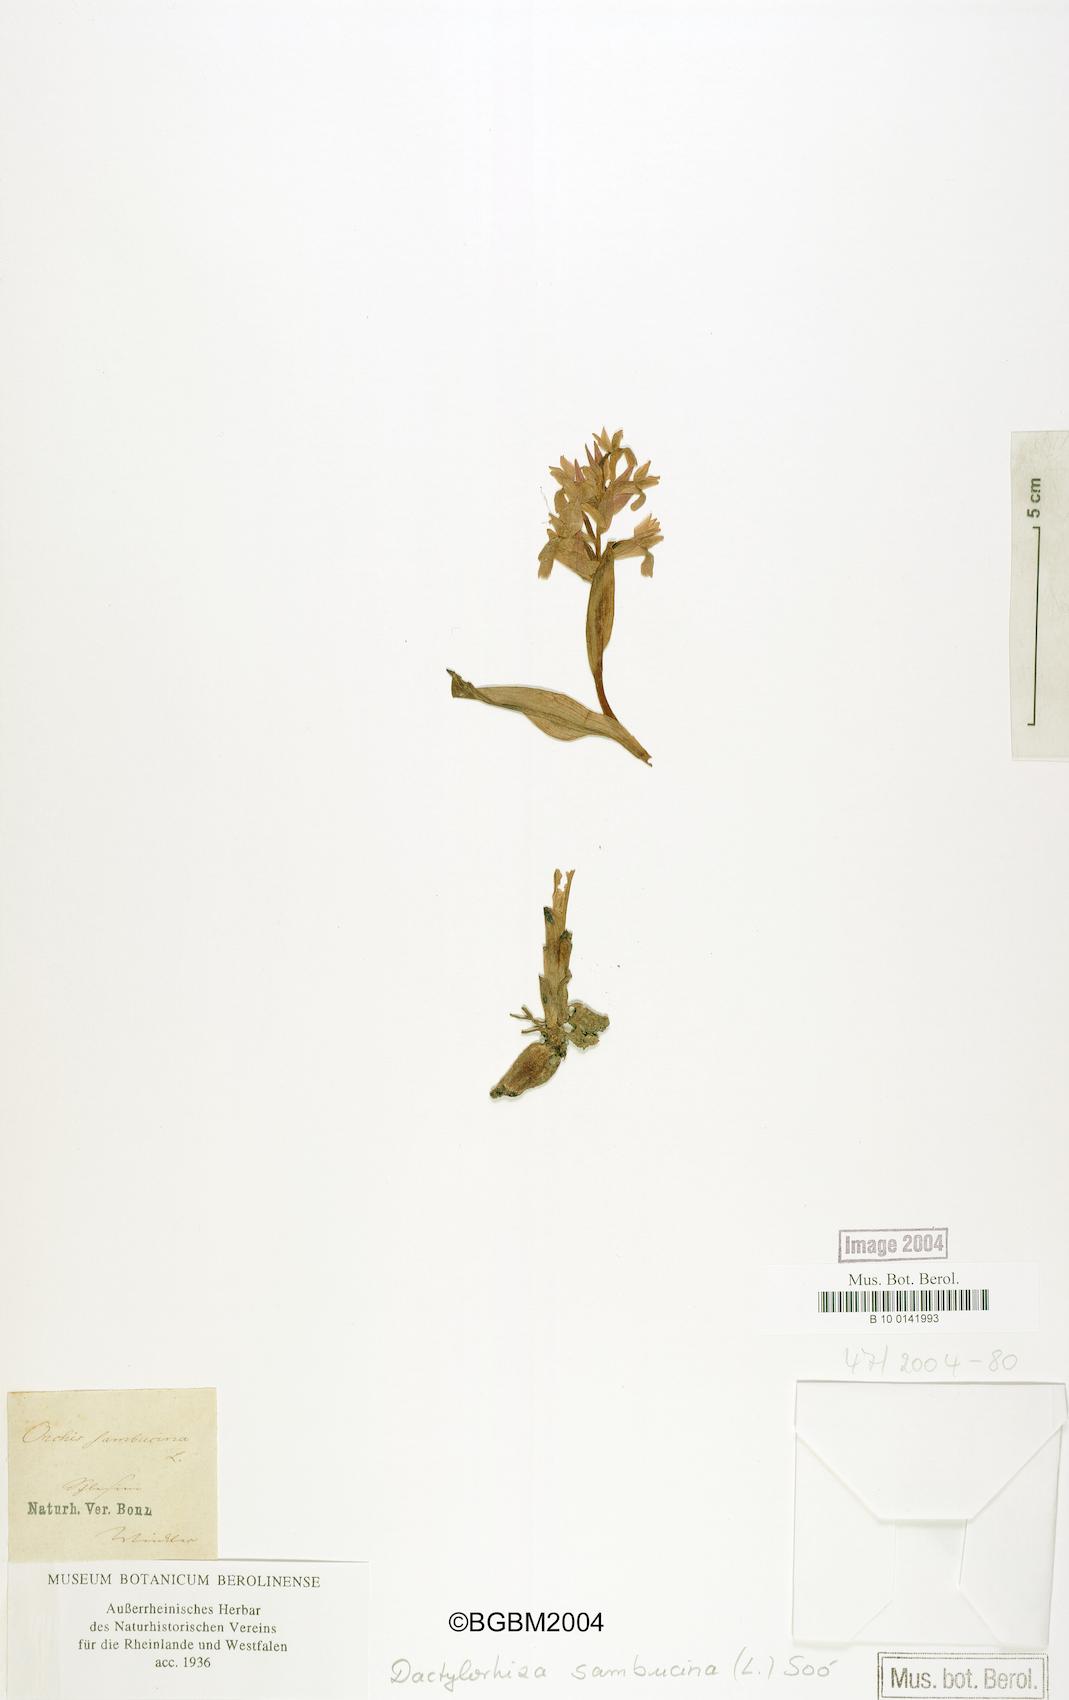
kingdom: Plantae
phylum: Tracheophyta
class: Liliopsida
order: Asparagales
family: Orchidaceae
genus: Dactylorhiza
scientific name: Dactylorhiza sambucina
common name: Elder-flowered orchid
